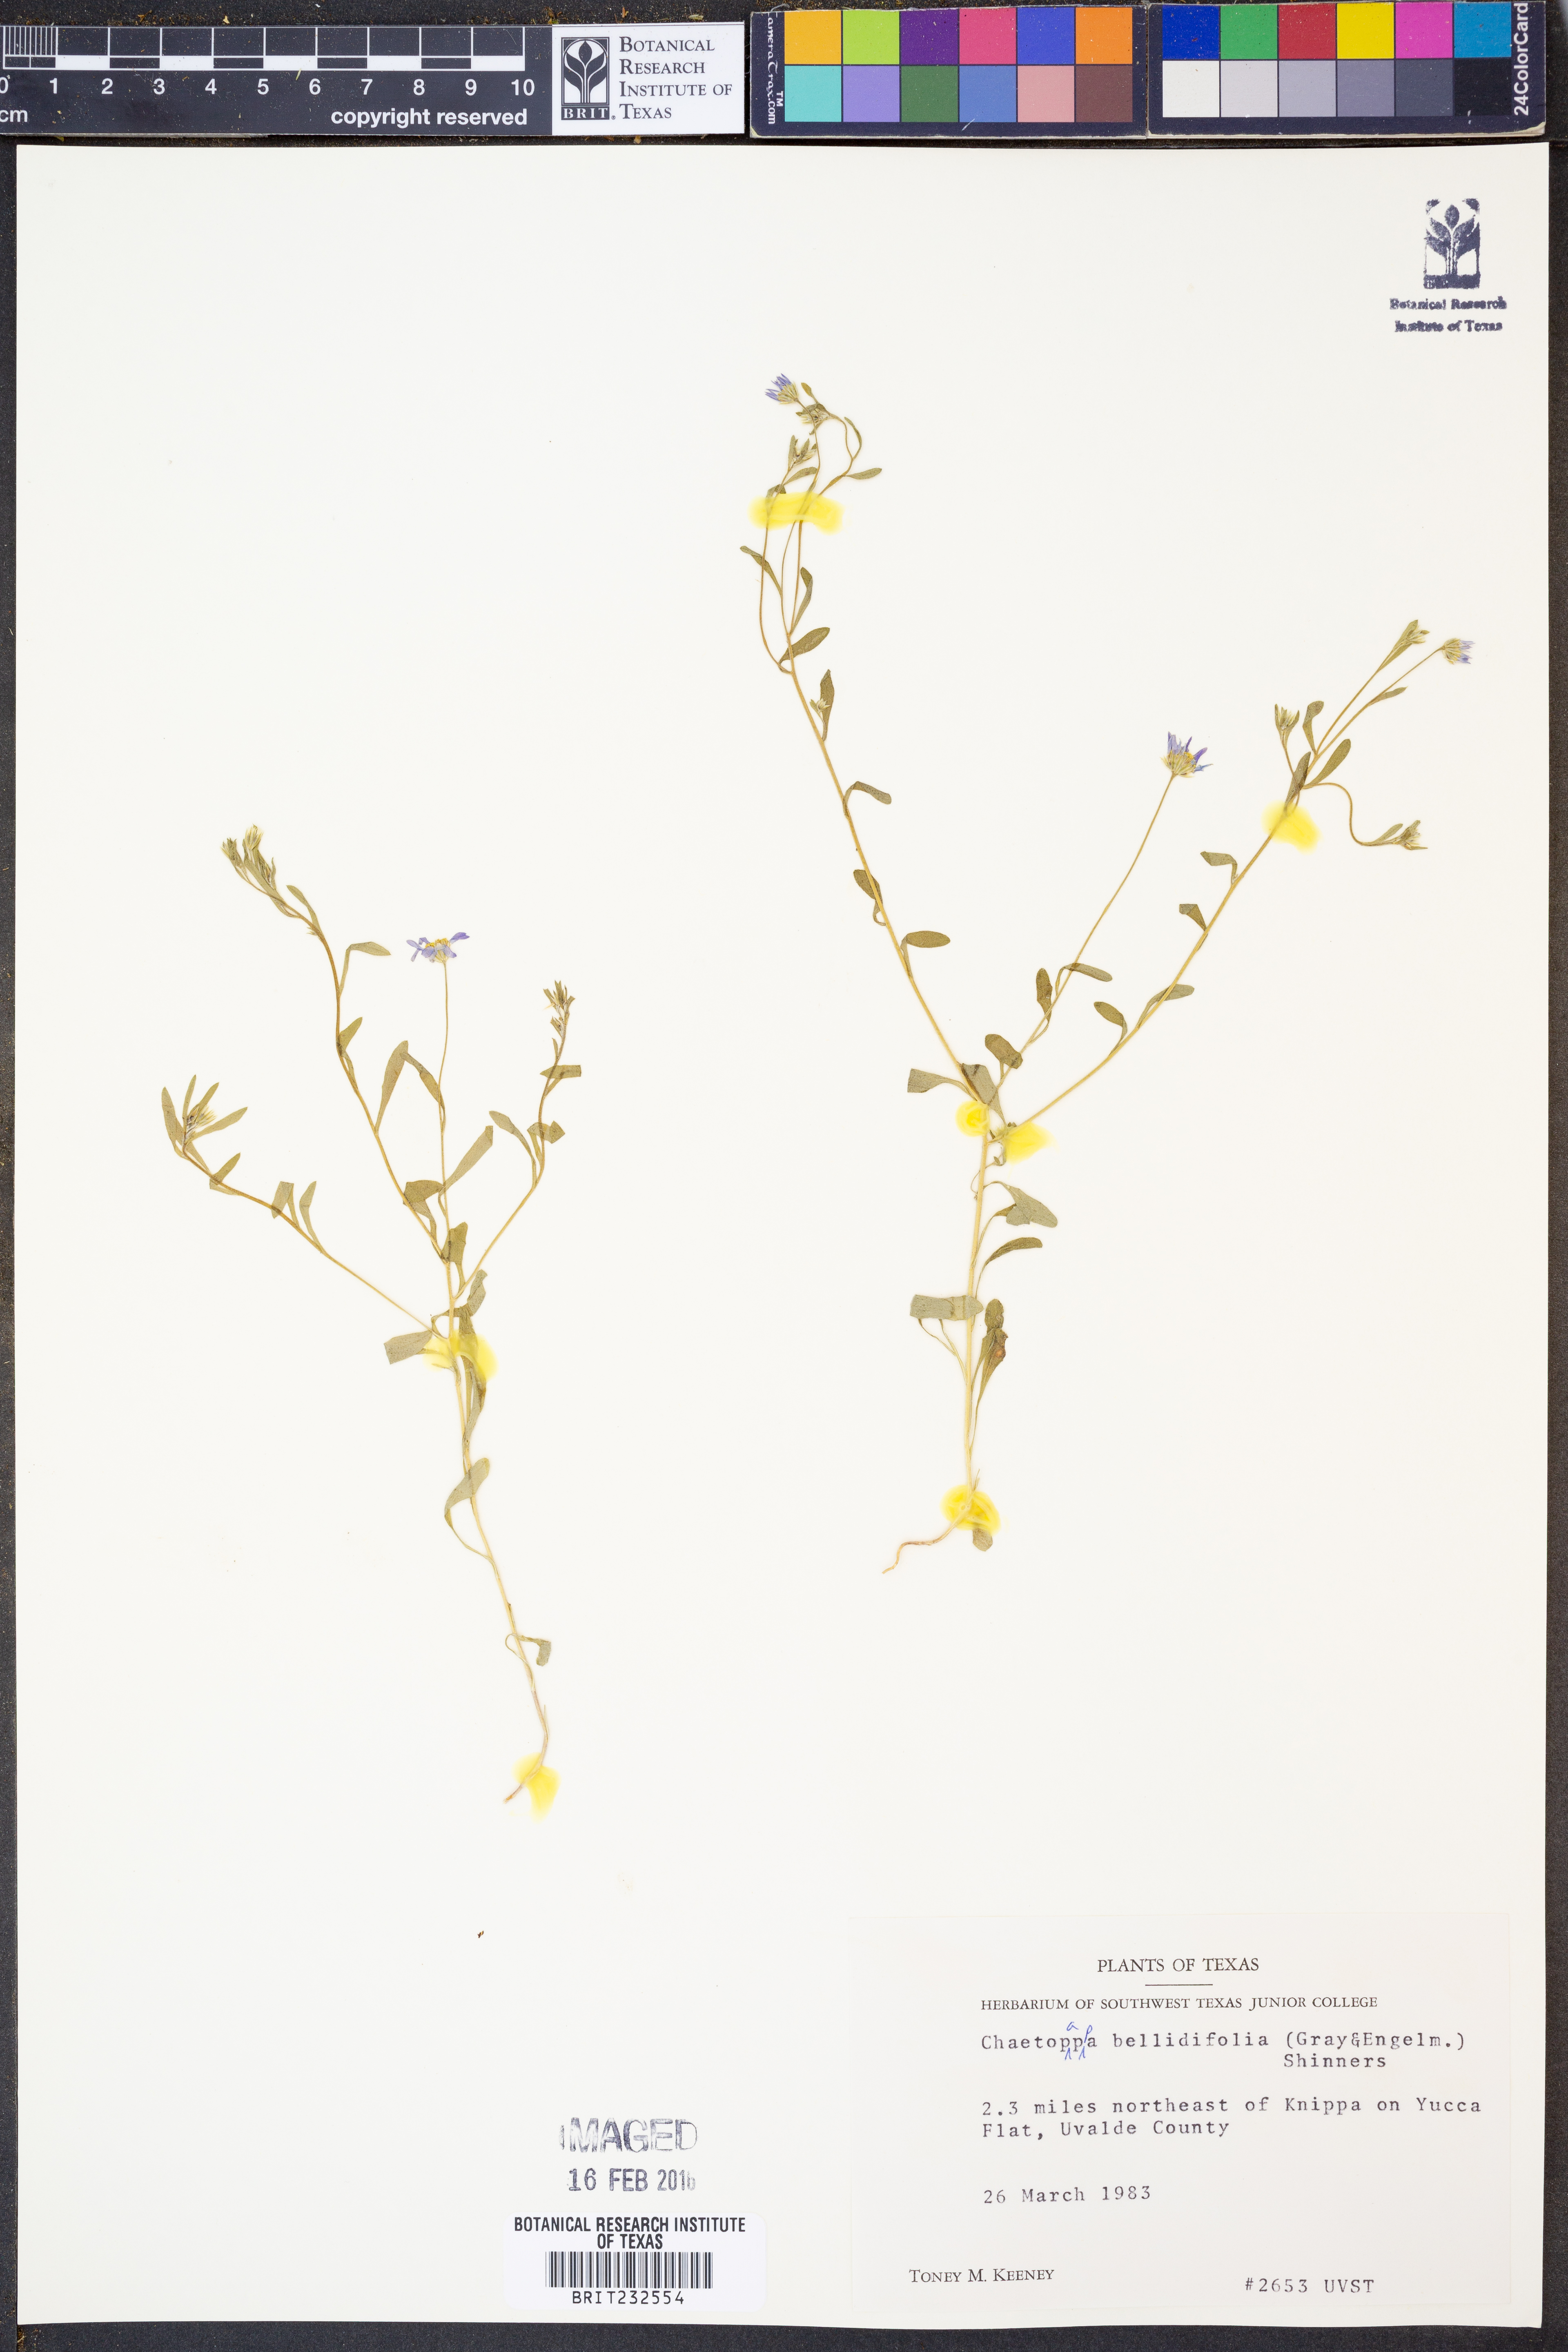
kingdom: Plantae
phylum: Tracheophyta
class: Magnoliopsida
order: Asterales
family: Asteraceae
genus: Chaetopappa
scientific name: Chaetopappa bellidifolia
